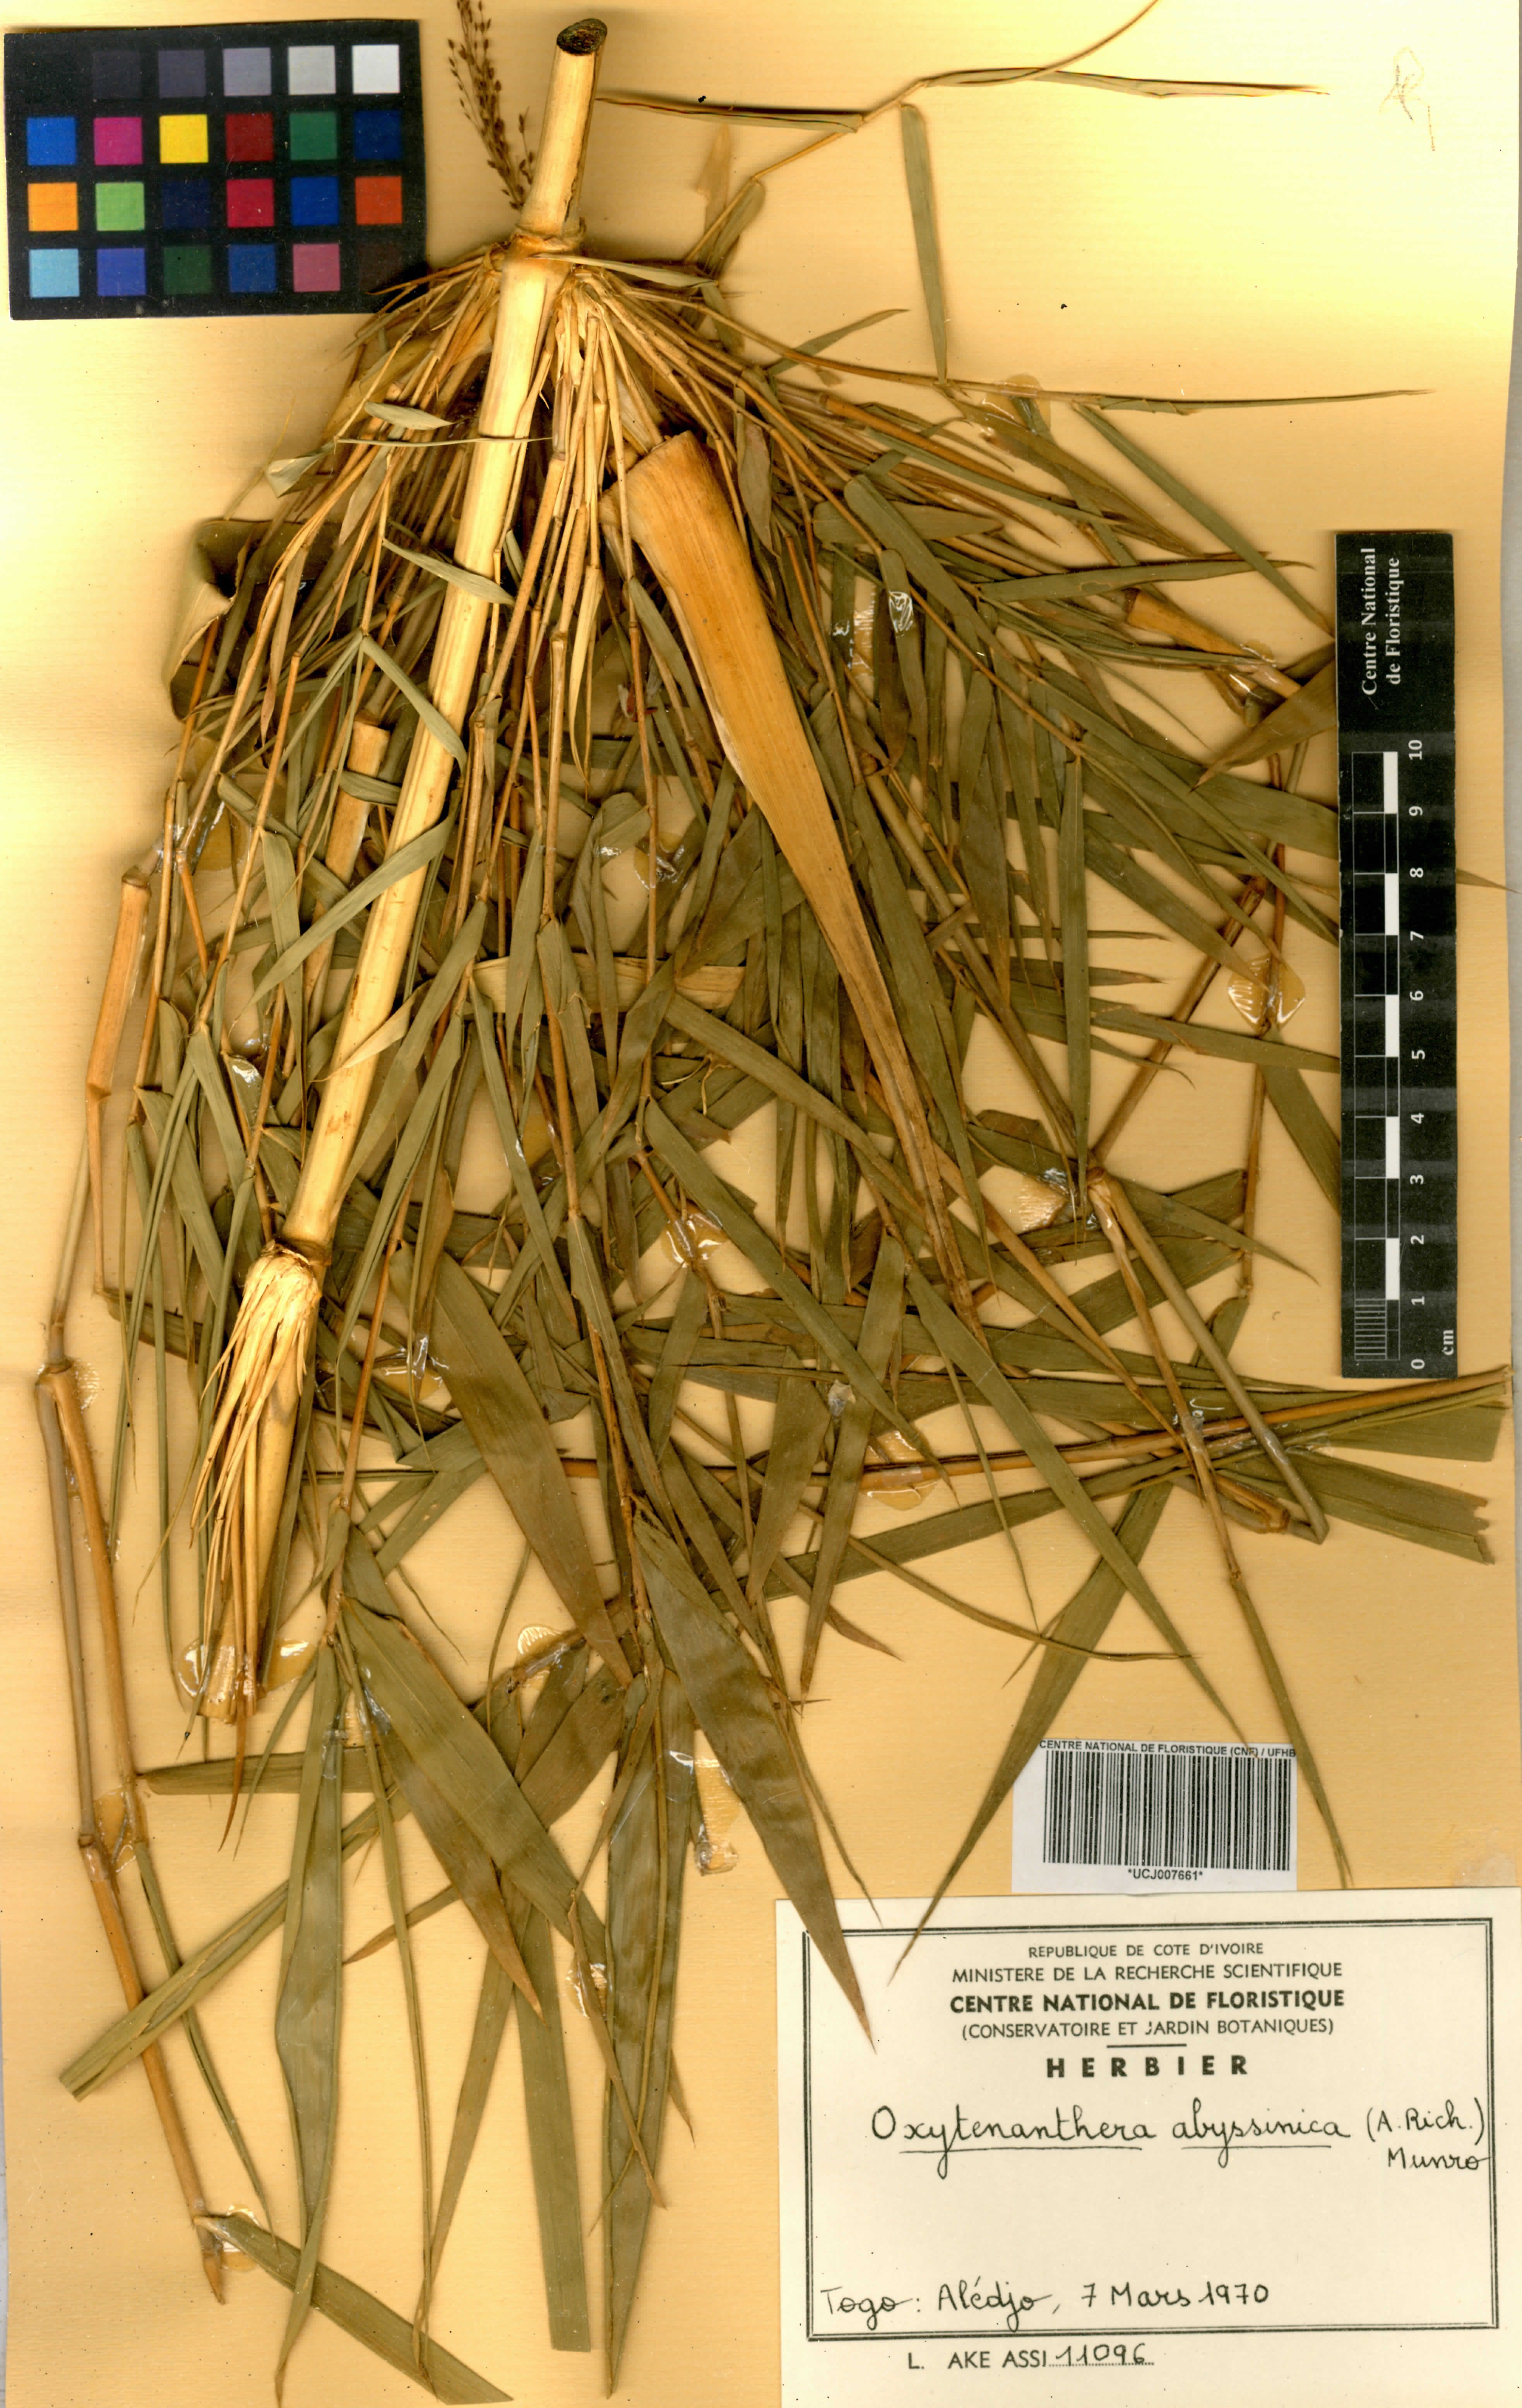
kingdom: Plantae
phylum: Tracheophyta
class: Liliopsida
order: Poales
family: Poaceae
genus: Oxytenanthera
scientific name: Oxytenanthera abyssinica
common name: Wine bamboo
